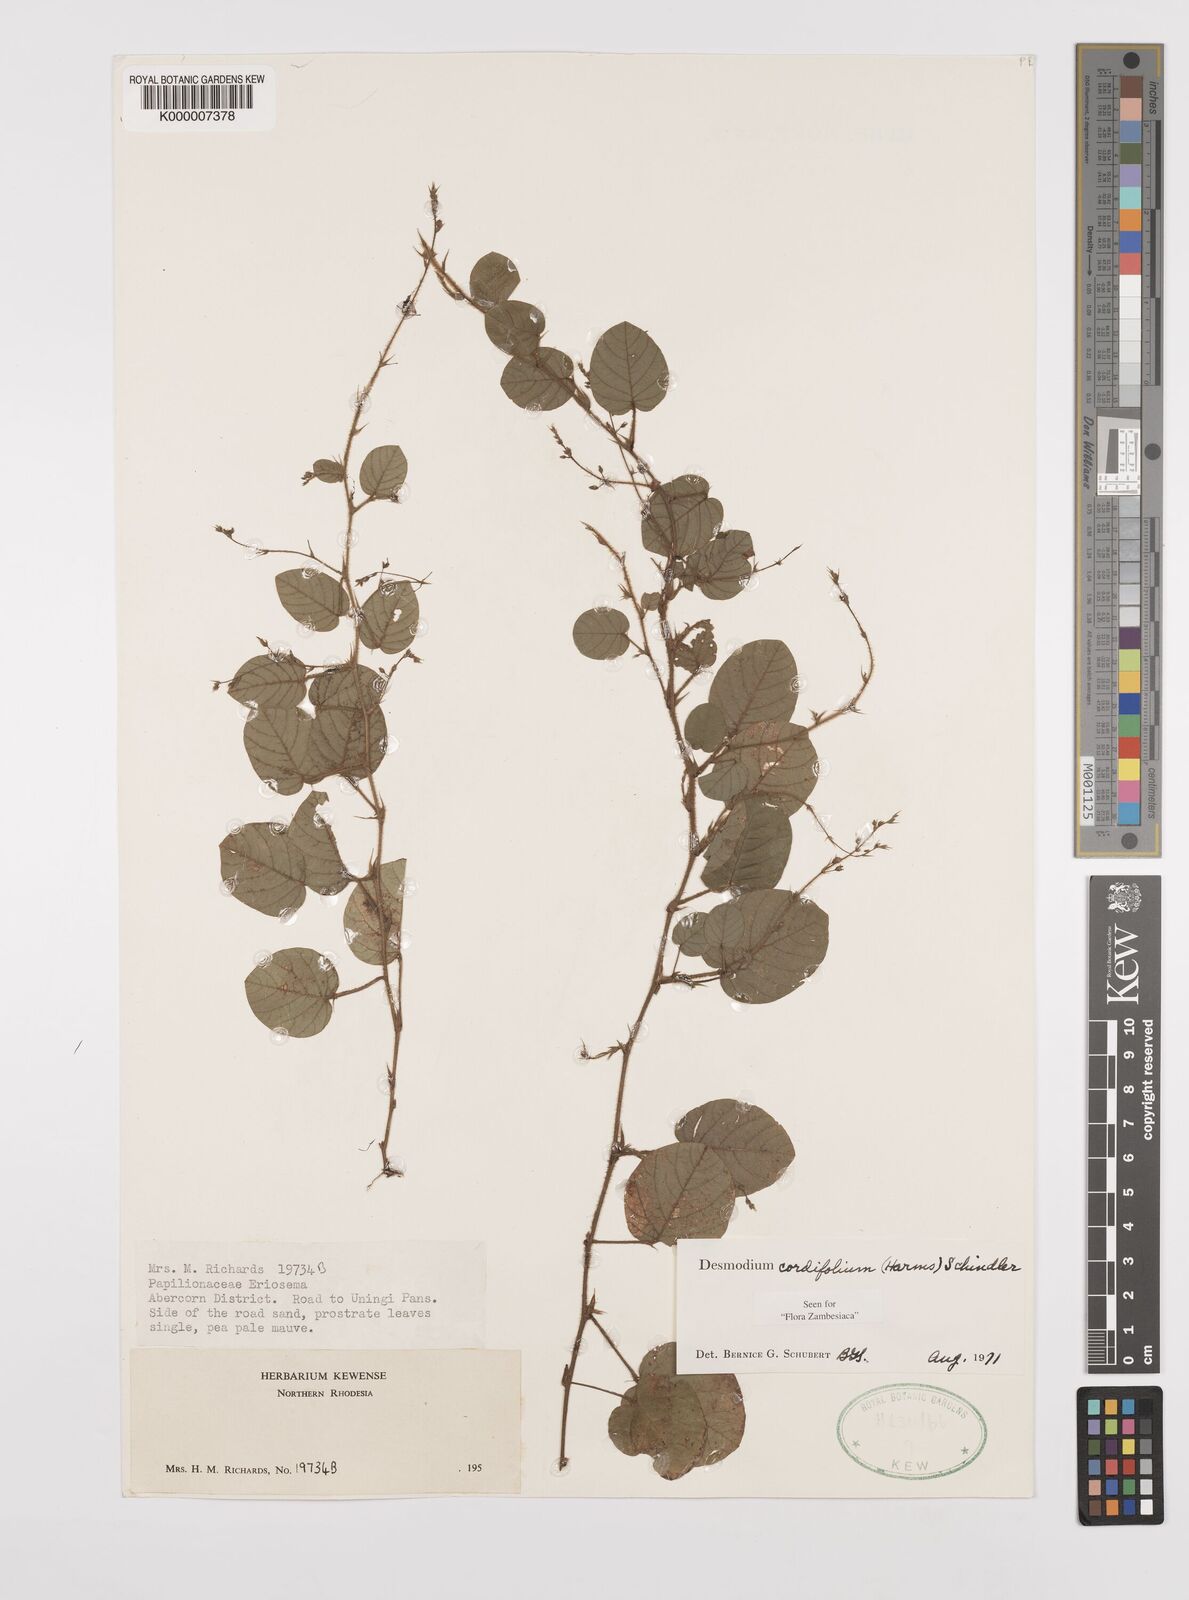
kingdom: Plantae
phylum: Tracheophyta
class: Magnoliopsida
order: Fabales
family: Fabaceae
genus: Grona
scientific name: Grona cordifolia
